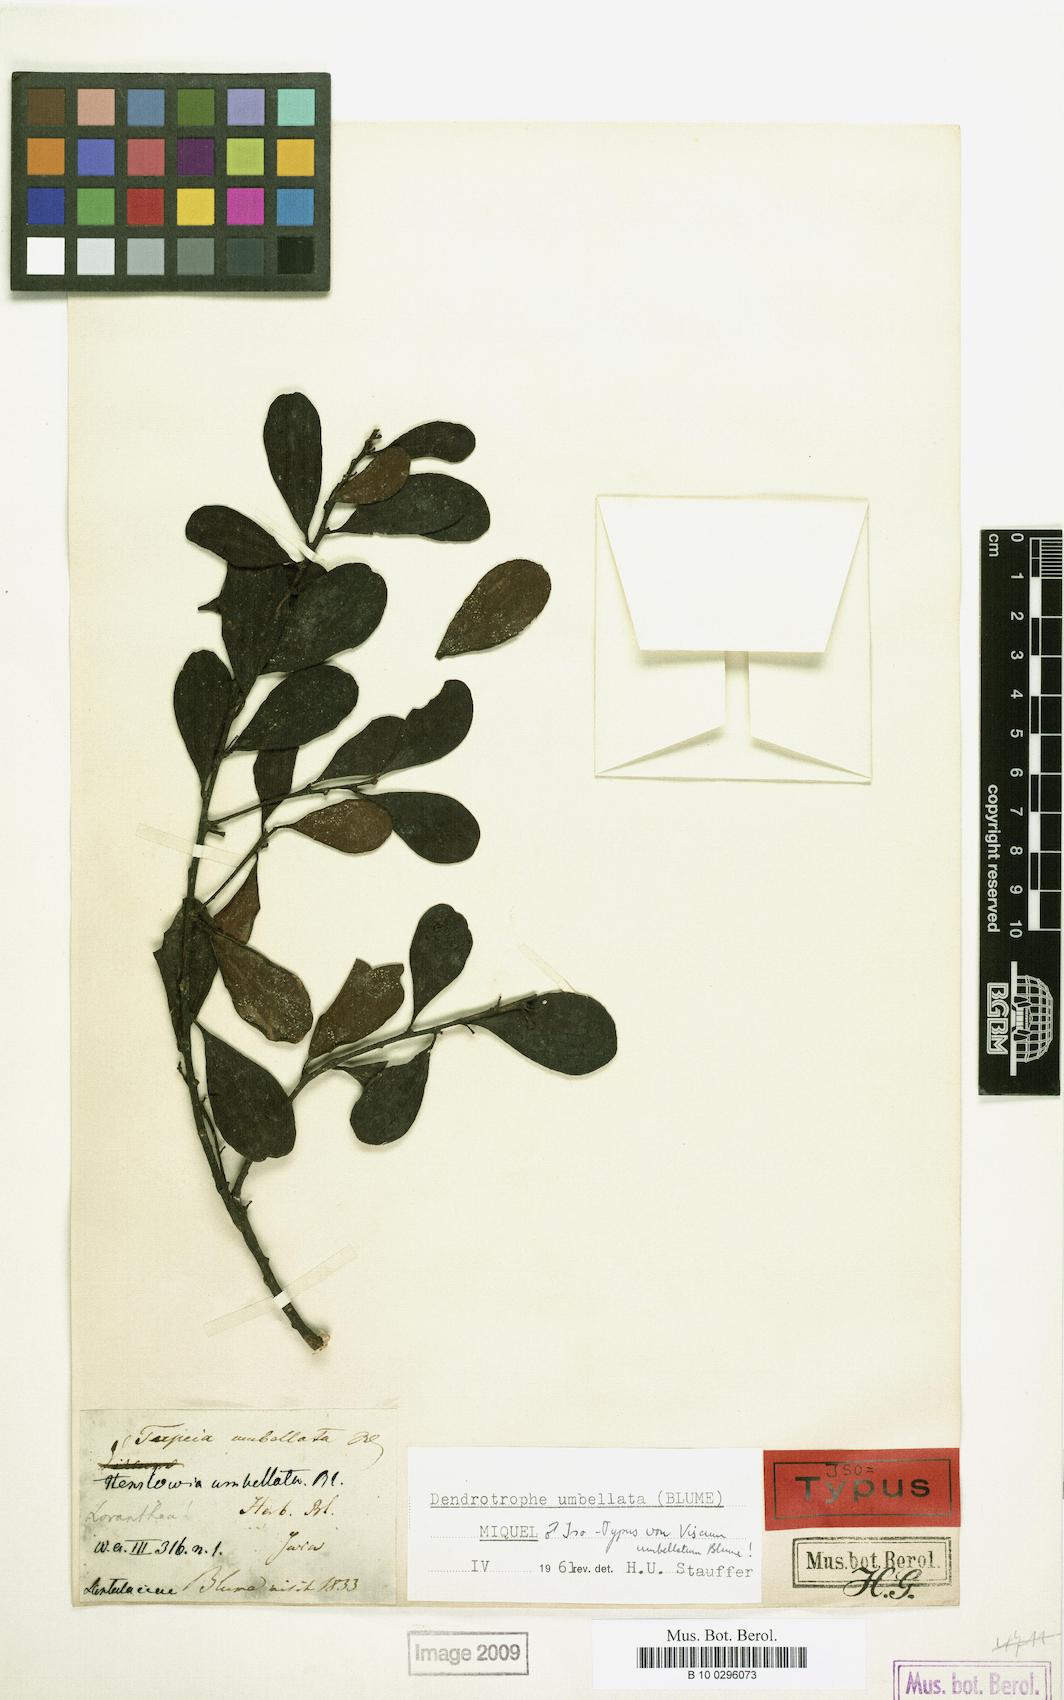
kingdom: Plantae
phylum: Tracheophyta
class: Magnoliopsida
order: Santalales
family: Amphorogynaceae
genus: Dendrotrophe
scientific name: Dendrotrophe umbellata
